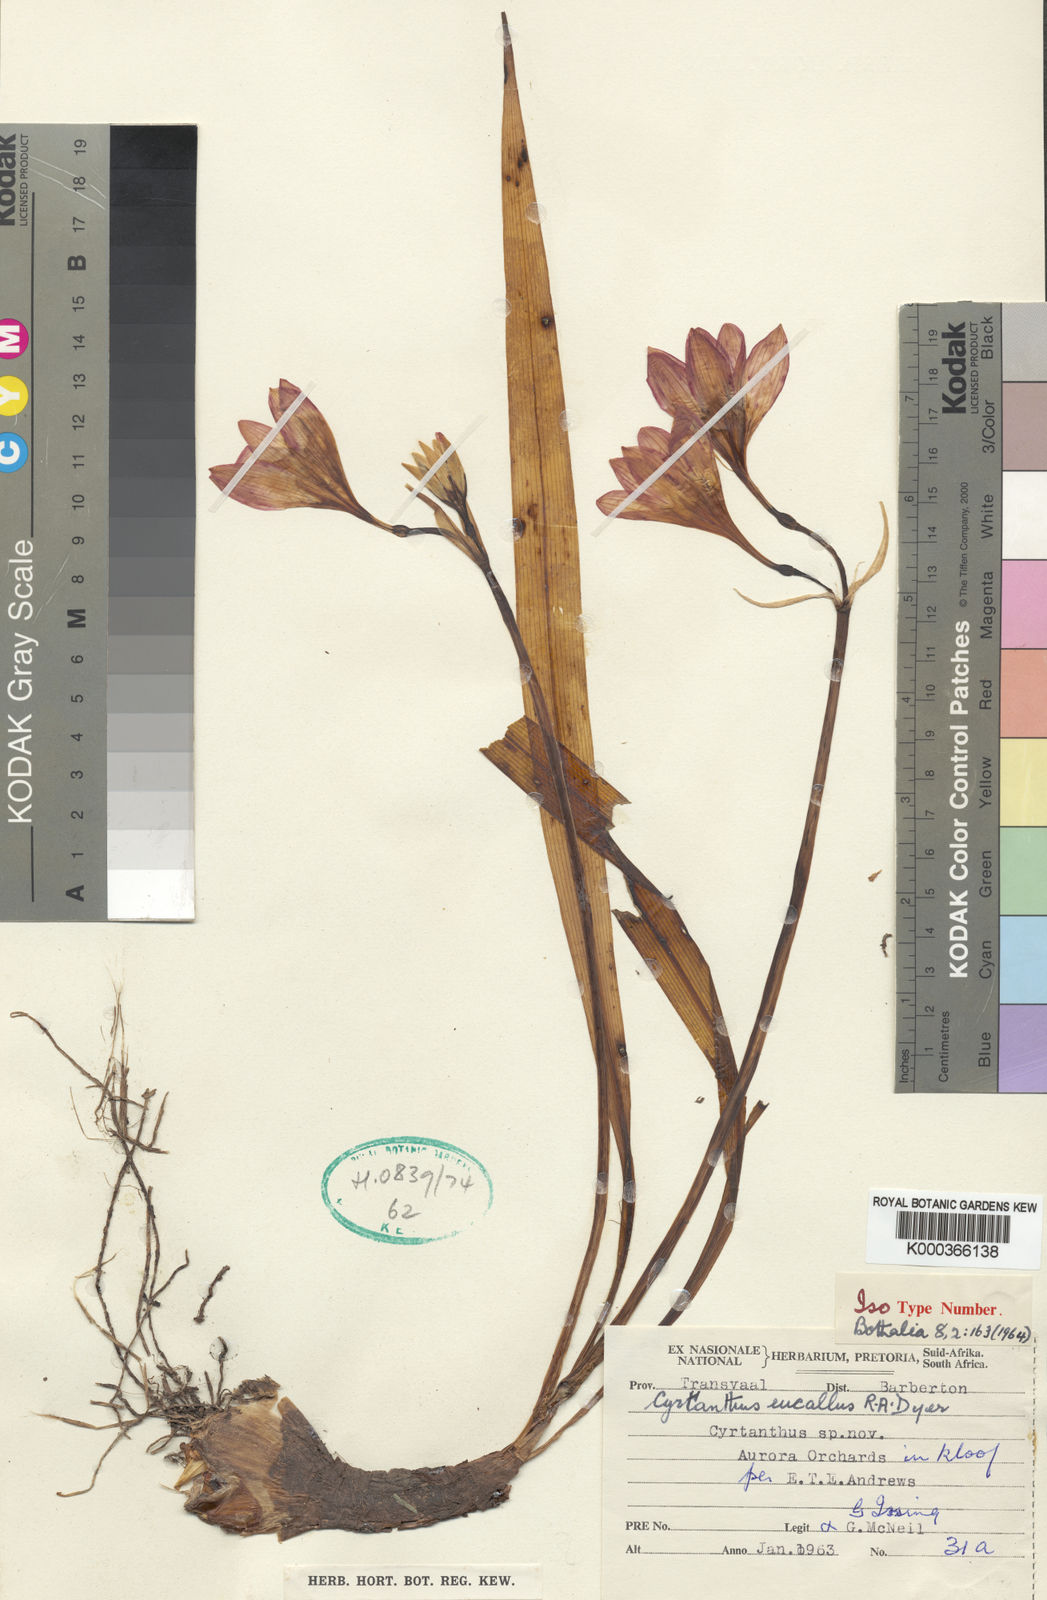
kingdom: Plantae
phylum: Tracheophyta
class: Liliopsida
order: Asparagales
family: Amaryllidaceae
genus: Cyrtanthus
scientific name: Cyrtanthus eucallus
